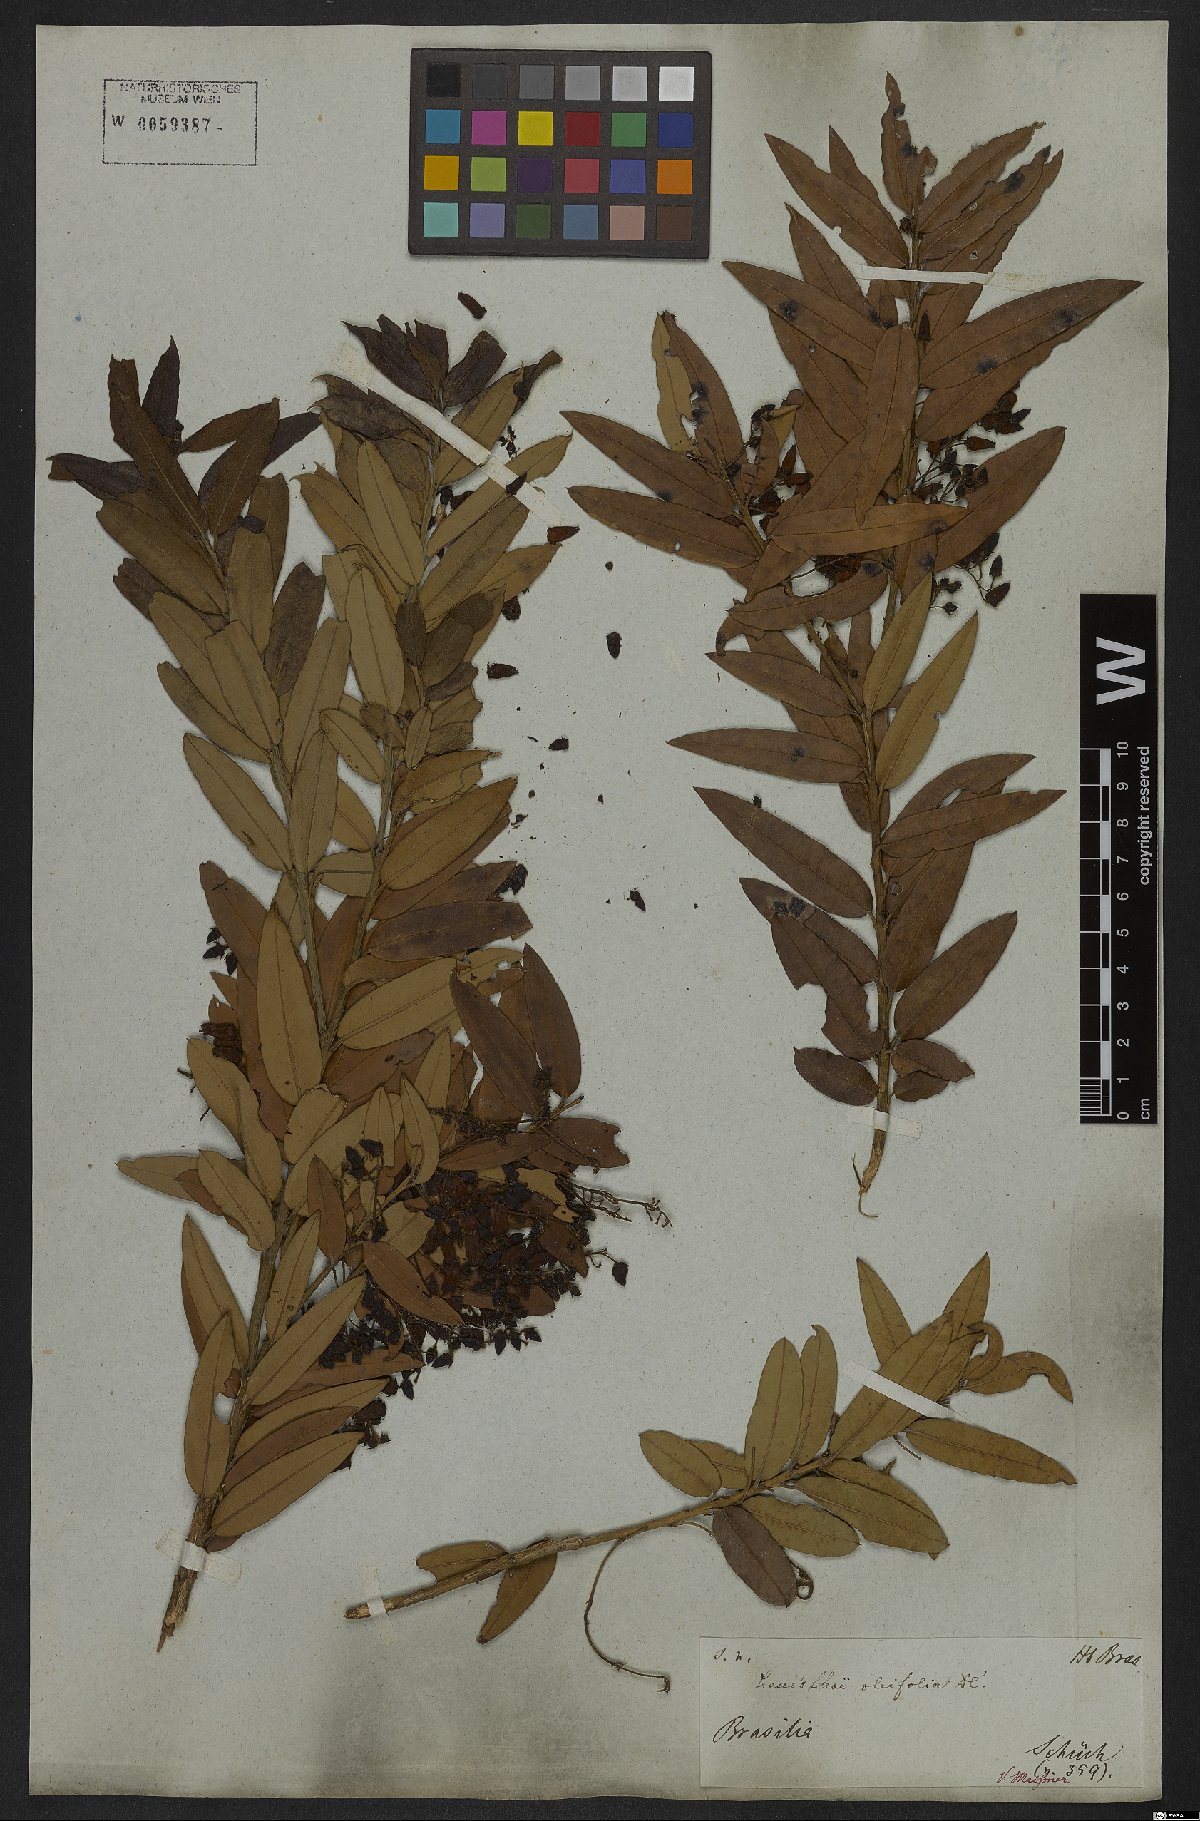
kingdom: Plantae
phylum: Tracheophyta
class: Magnoliopsida
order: Ericales
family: Ericaceae
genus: Agarista
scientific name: Agarista oleifolia
